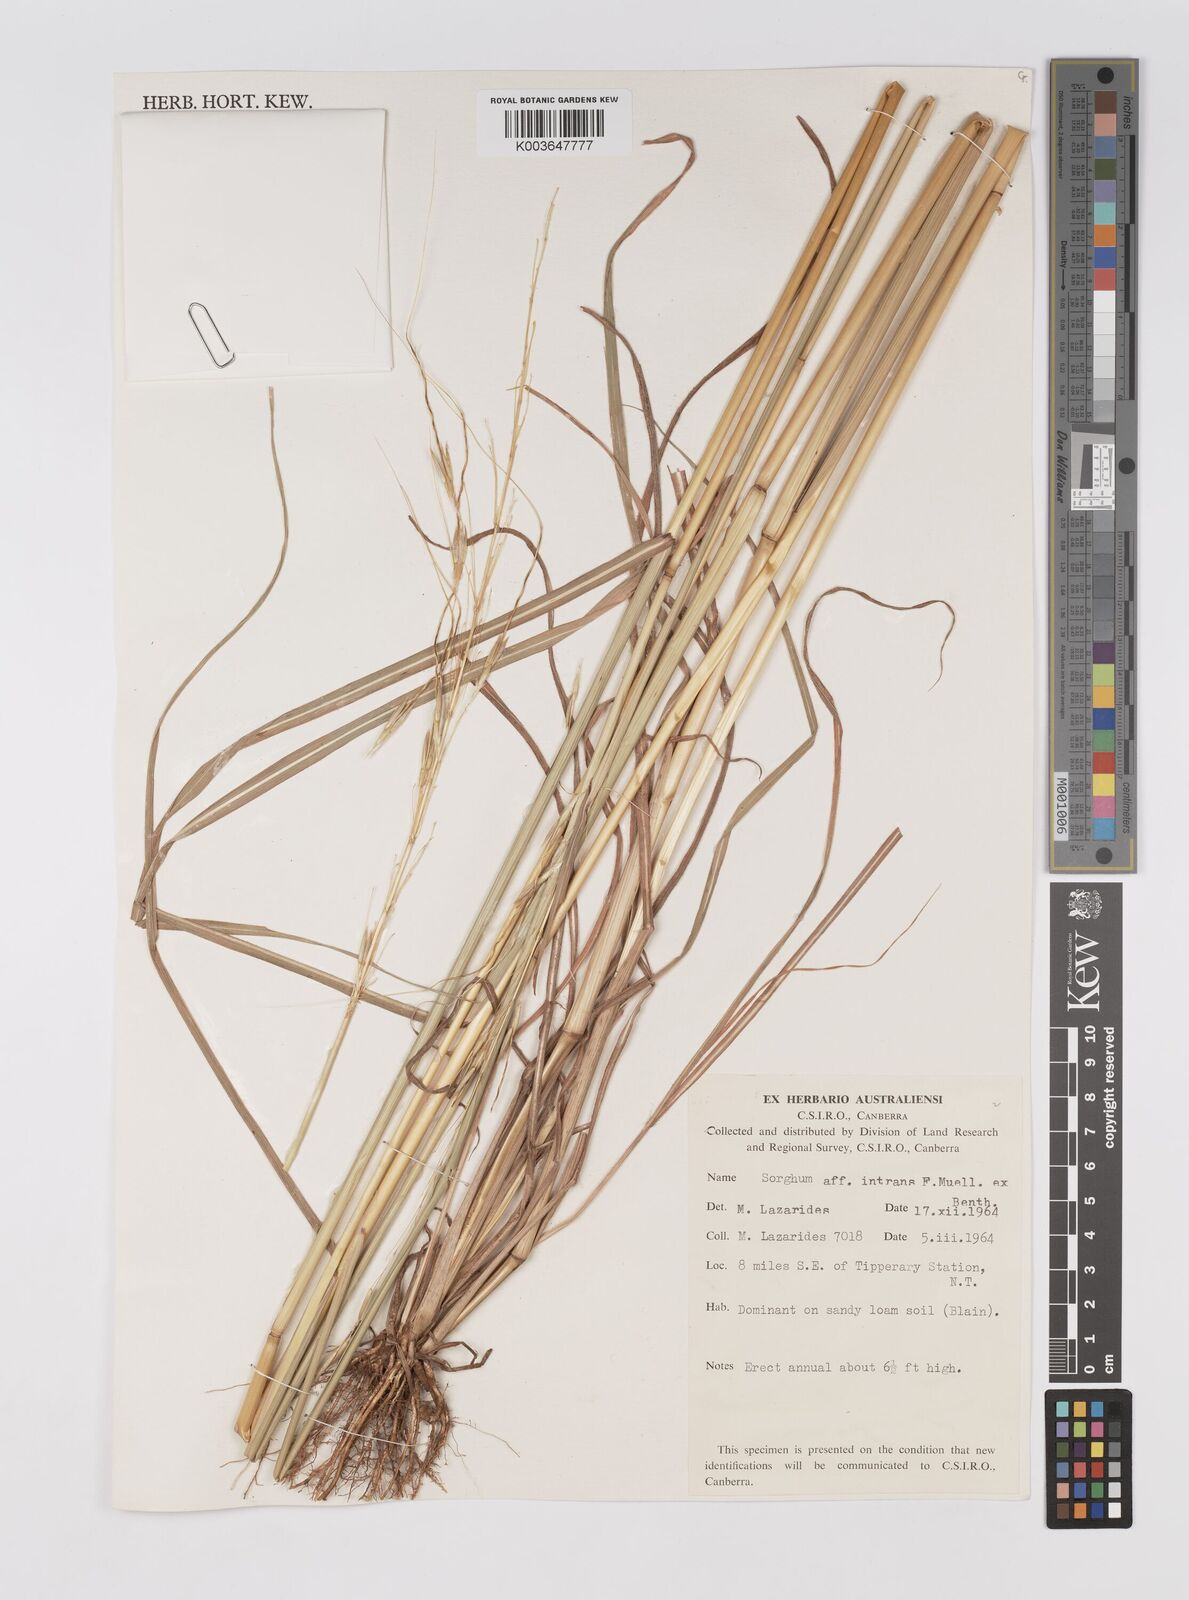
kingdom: Plantae
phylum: Tracheophyta
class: Liliopsida
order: Poales
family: Poaceae
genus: Sarga
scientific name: Sarga intrans
